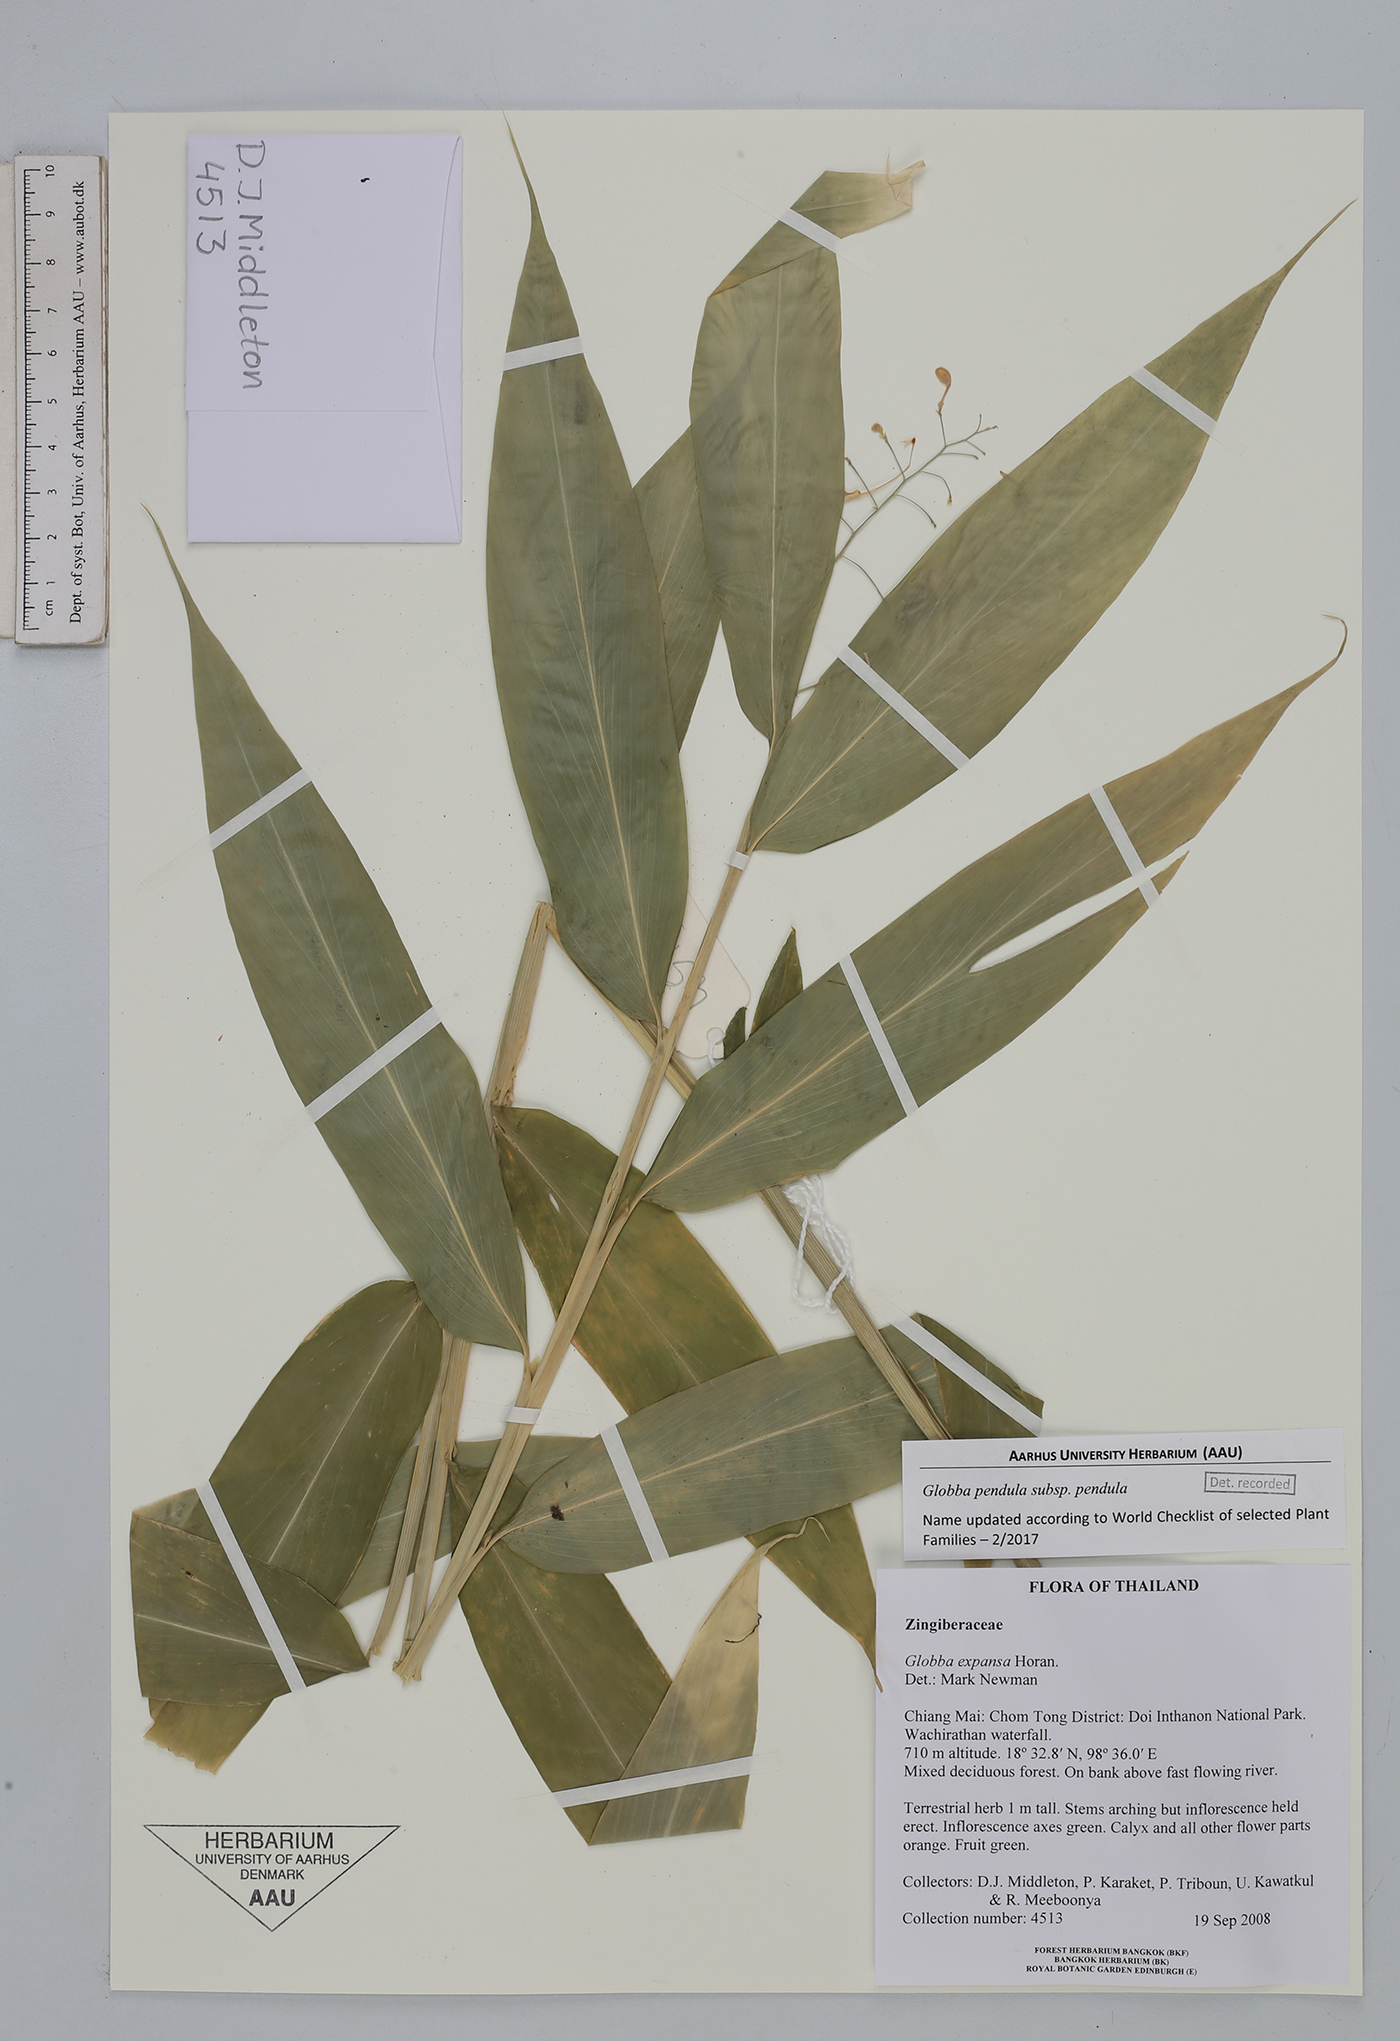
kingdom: Plantae
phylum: Tracheophyta
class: Liliopsida
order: Zingiberales
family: Zingiberaceae
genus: Globba
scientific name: Globba expansa
